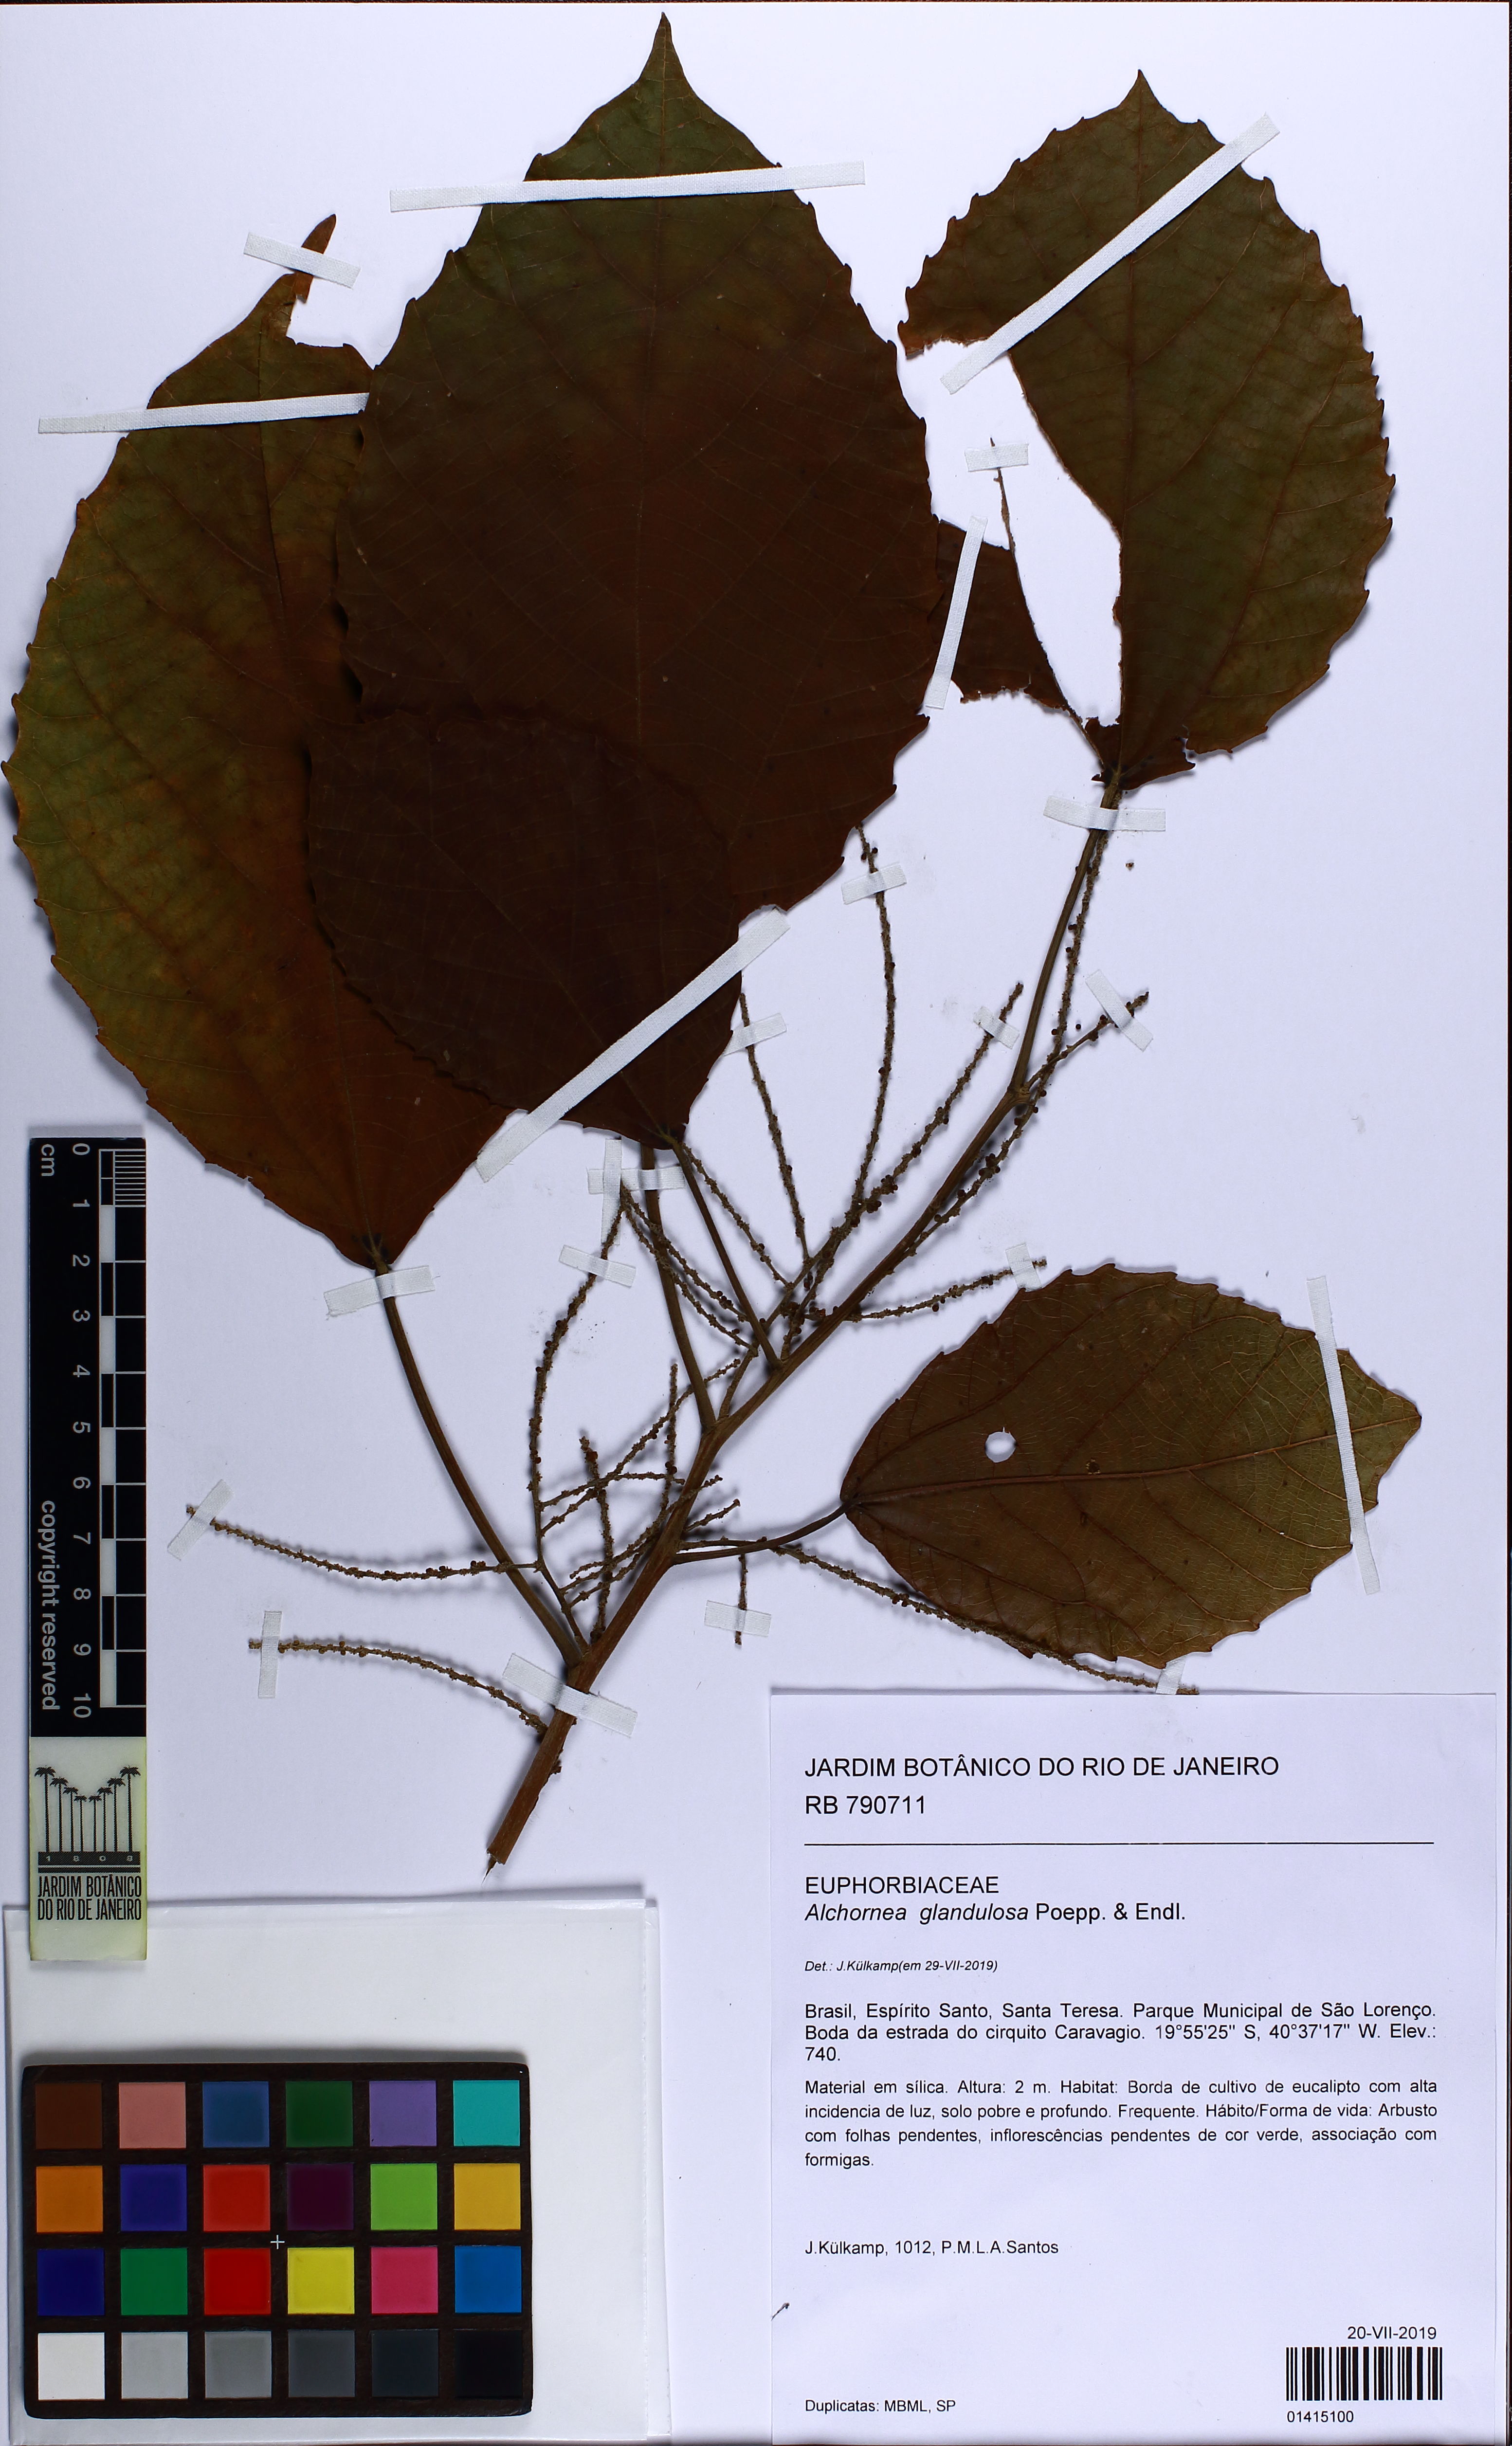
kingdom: Plantae
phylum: Tracheophyta
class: Magnoliopsida
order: Malpighiales
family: Euphorbiaceae
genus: Alchornea
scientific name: Alchornea glandulosa
